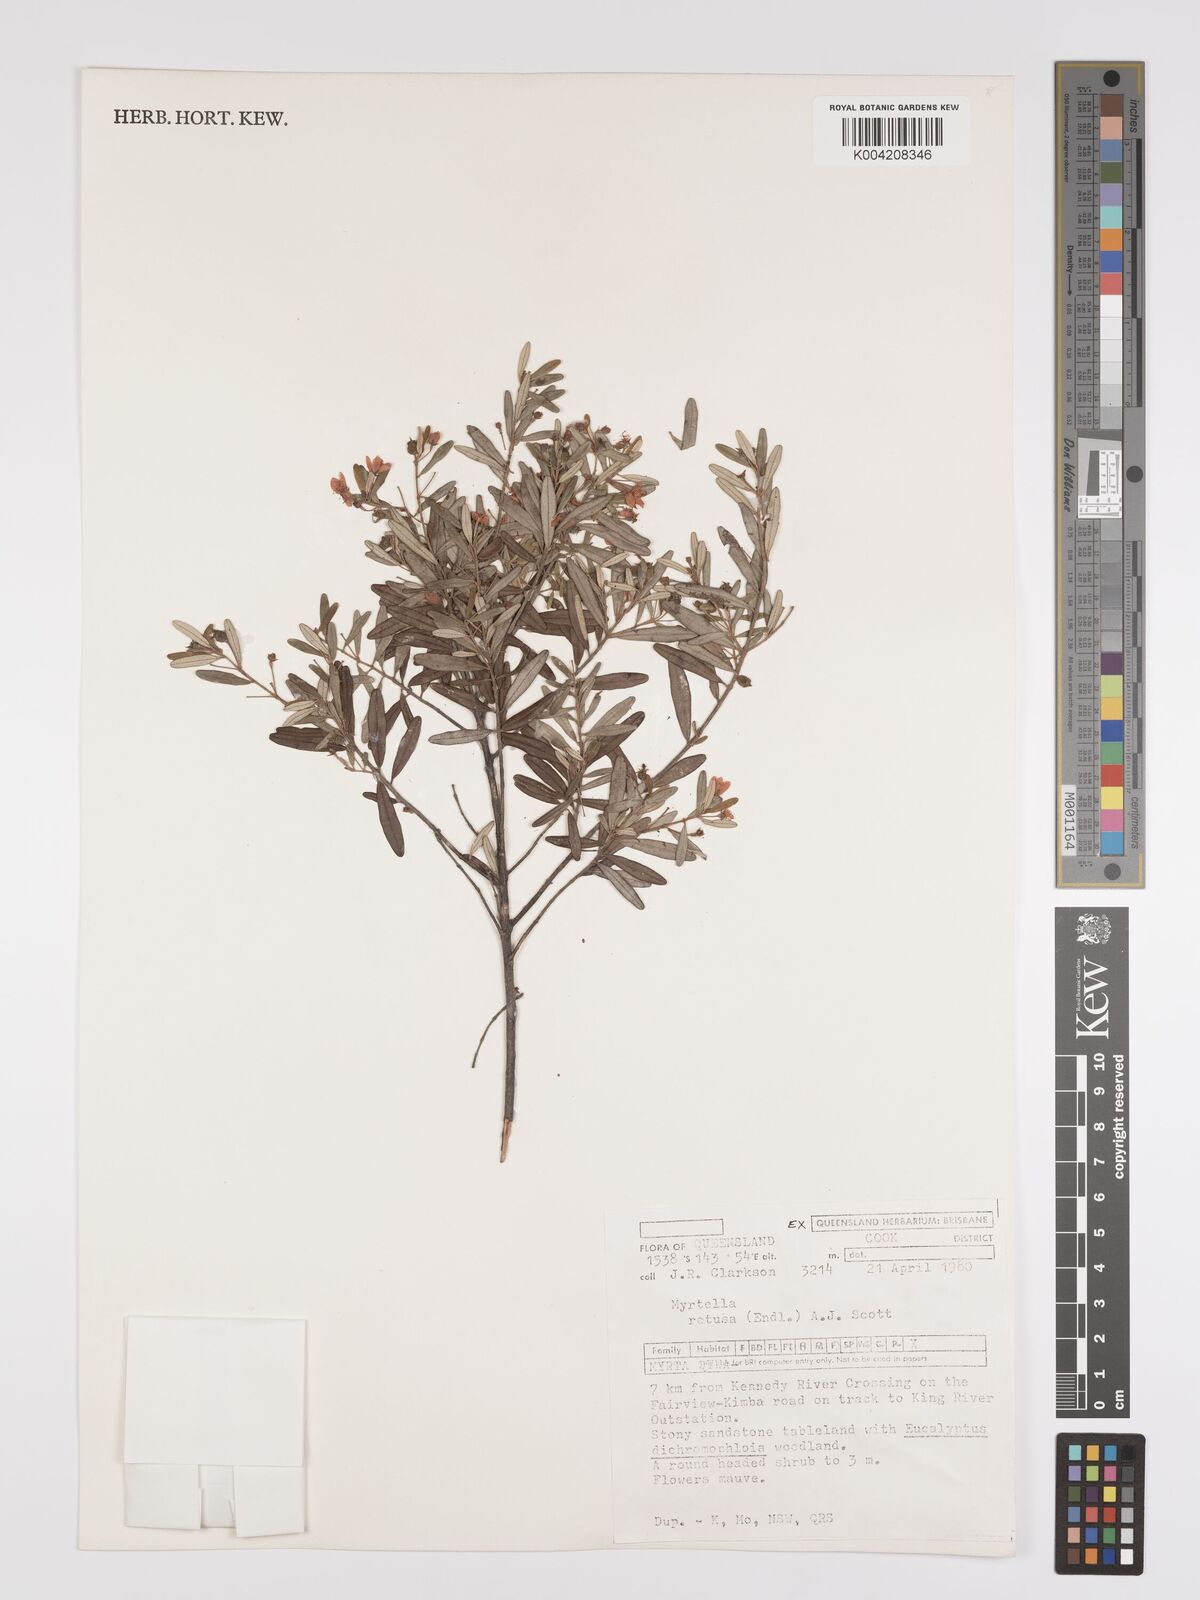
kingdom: Plantae
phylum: Tracheophyta
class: Magnoliopsida
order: Myrtales
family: Myrtaceae
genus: Lithomyrtus
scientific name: Lithomyrtus retusa
